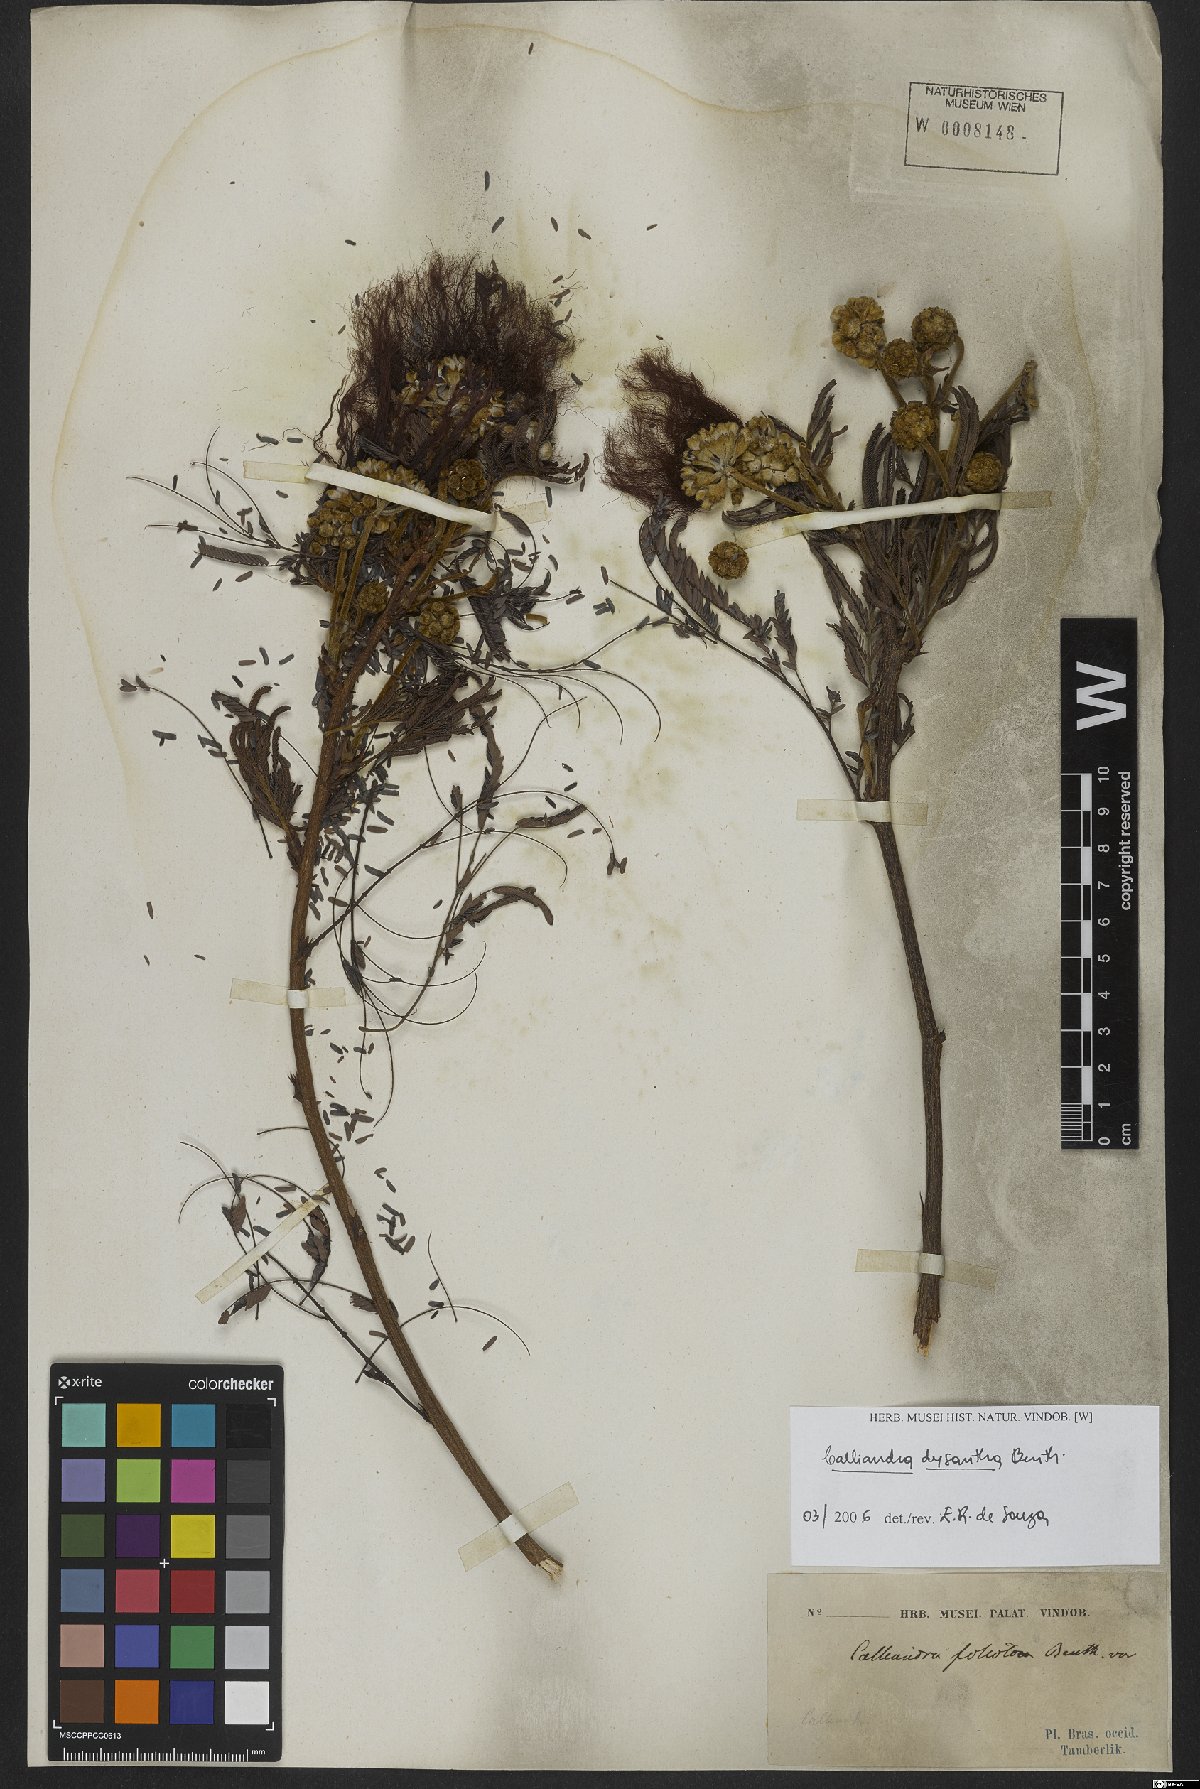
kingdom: Plantae
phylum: Tracheophyta
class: Magnoliopsida
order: Fabales
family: Fabaceae
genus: Calliandra
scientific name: Calliandra dysantha
